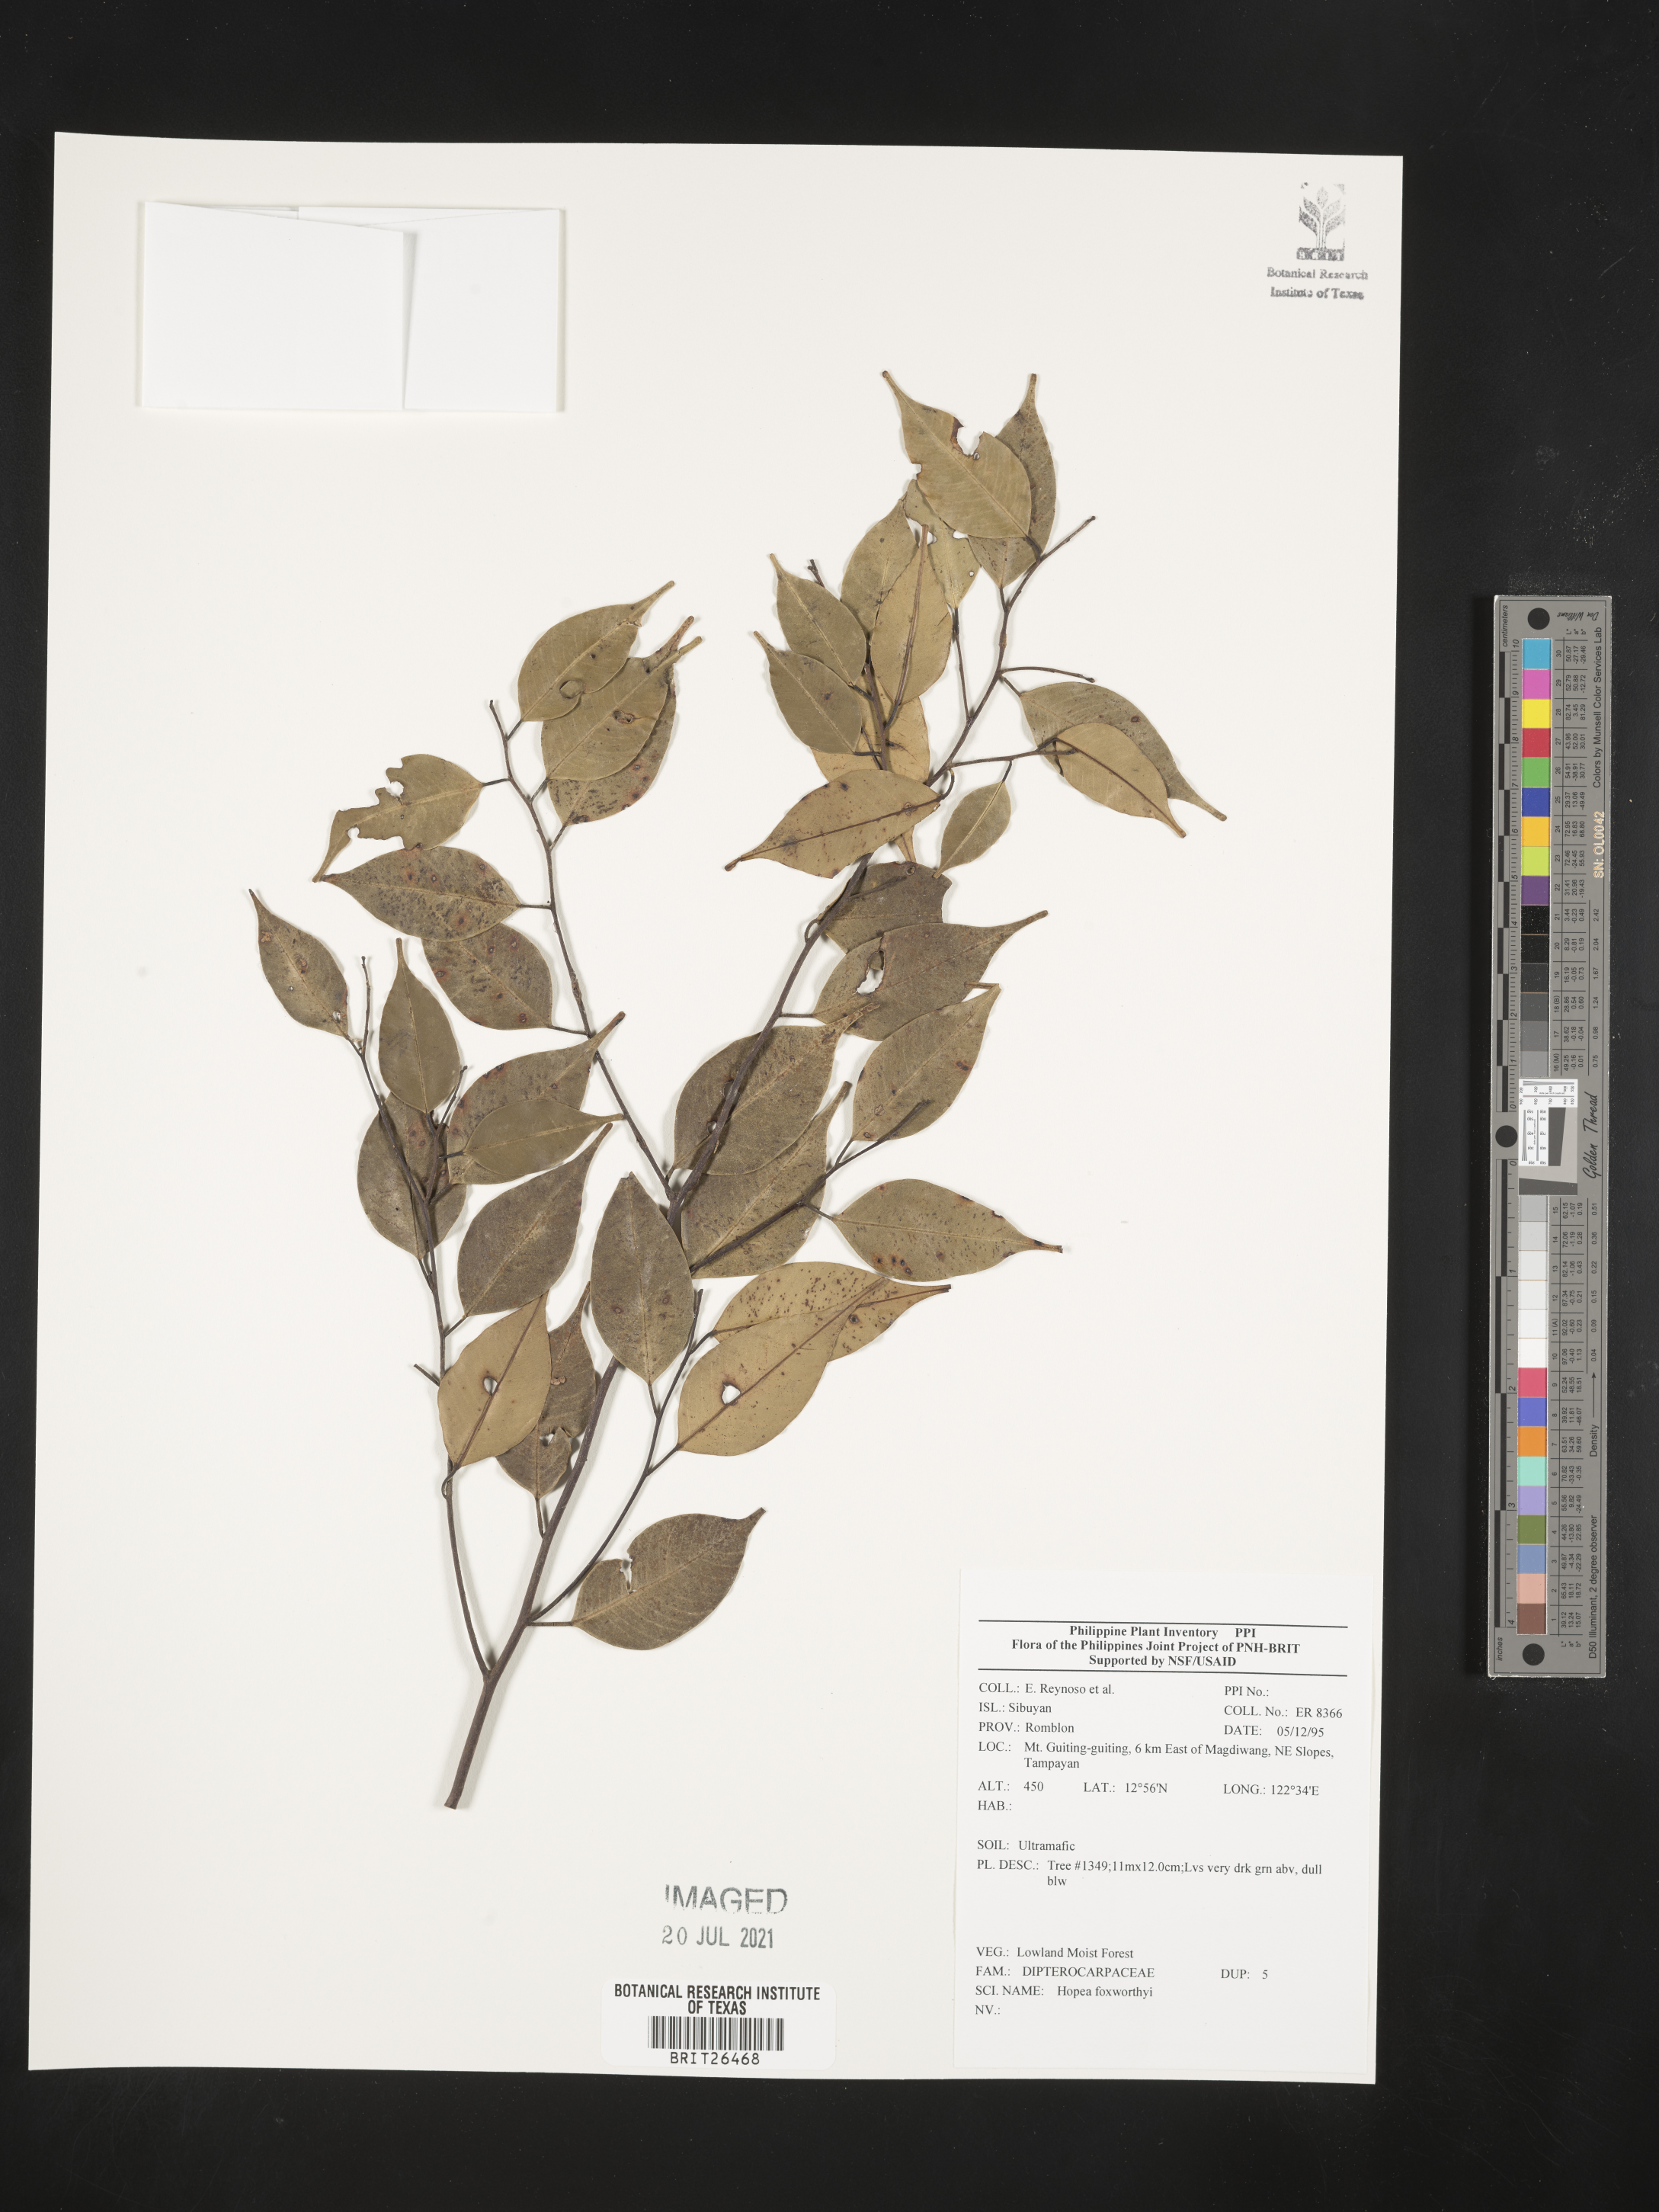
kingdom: Plantae
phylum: Tracheophyta
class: Magnoliopsida
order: Malvales
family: Dipterocarpaceae
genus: Hopea
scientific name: Hopea foxworthyi
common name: Dalingdingan
